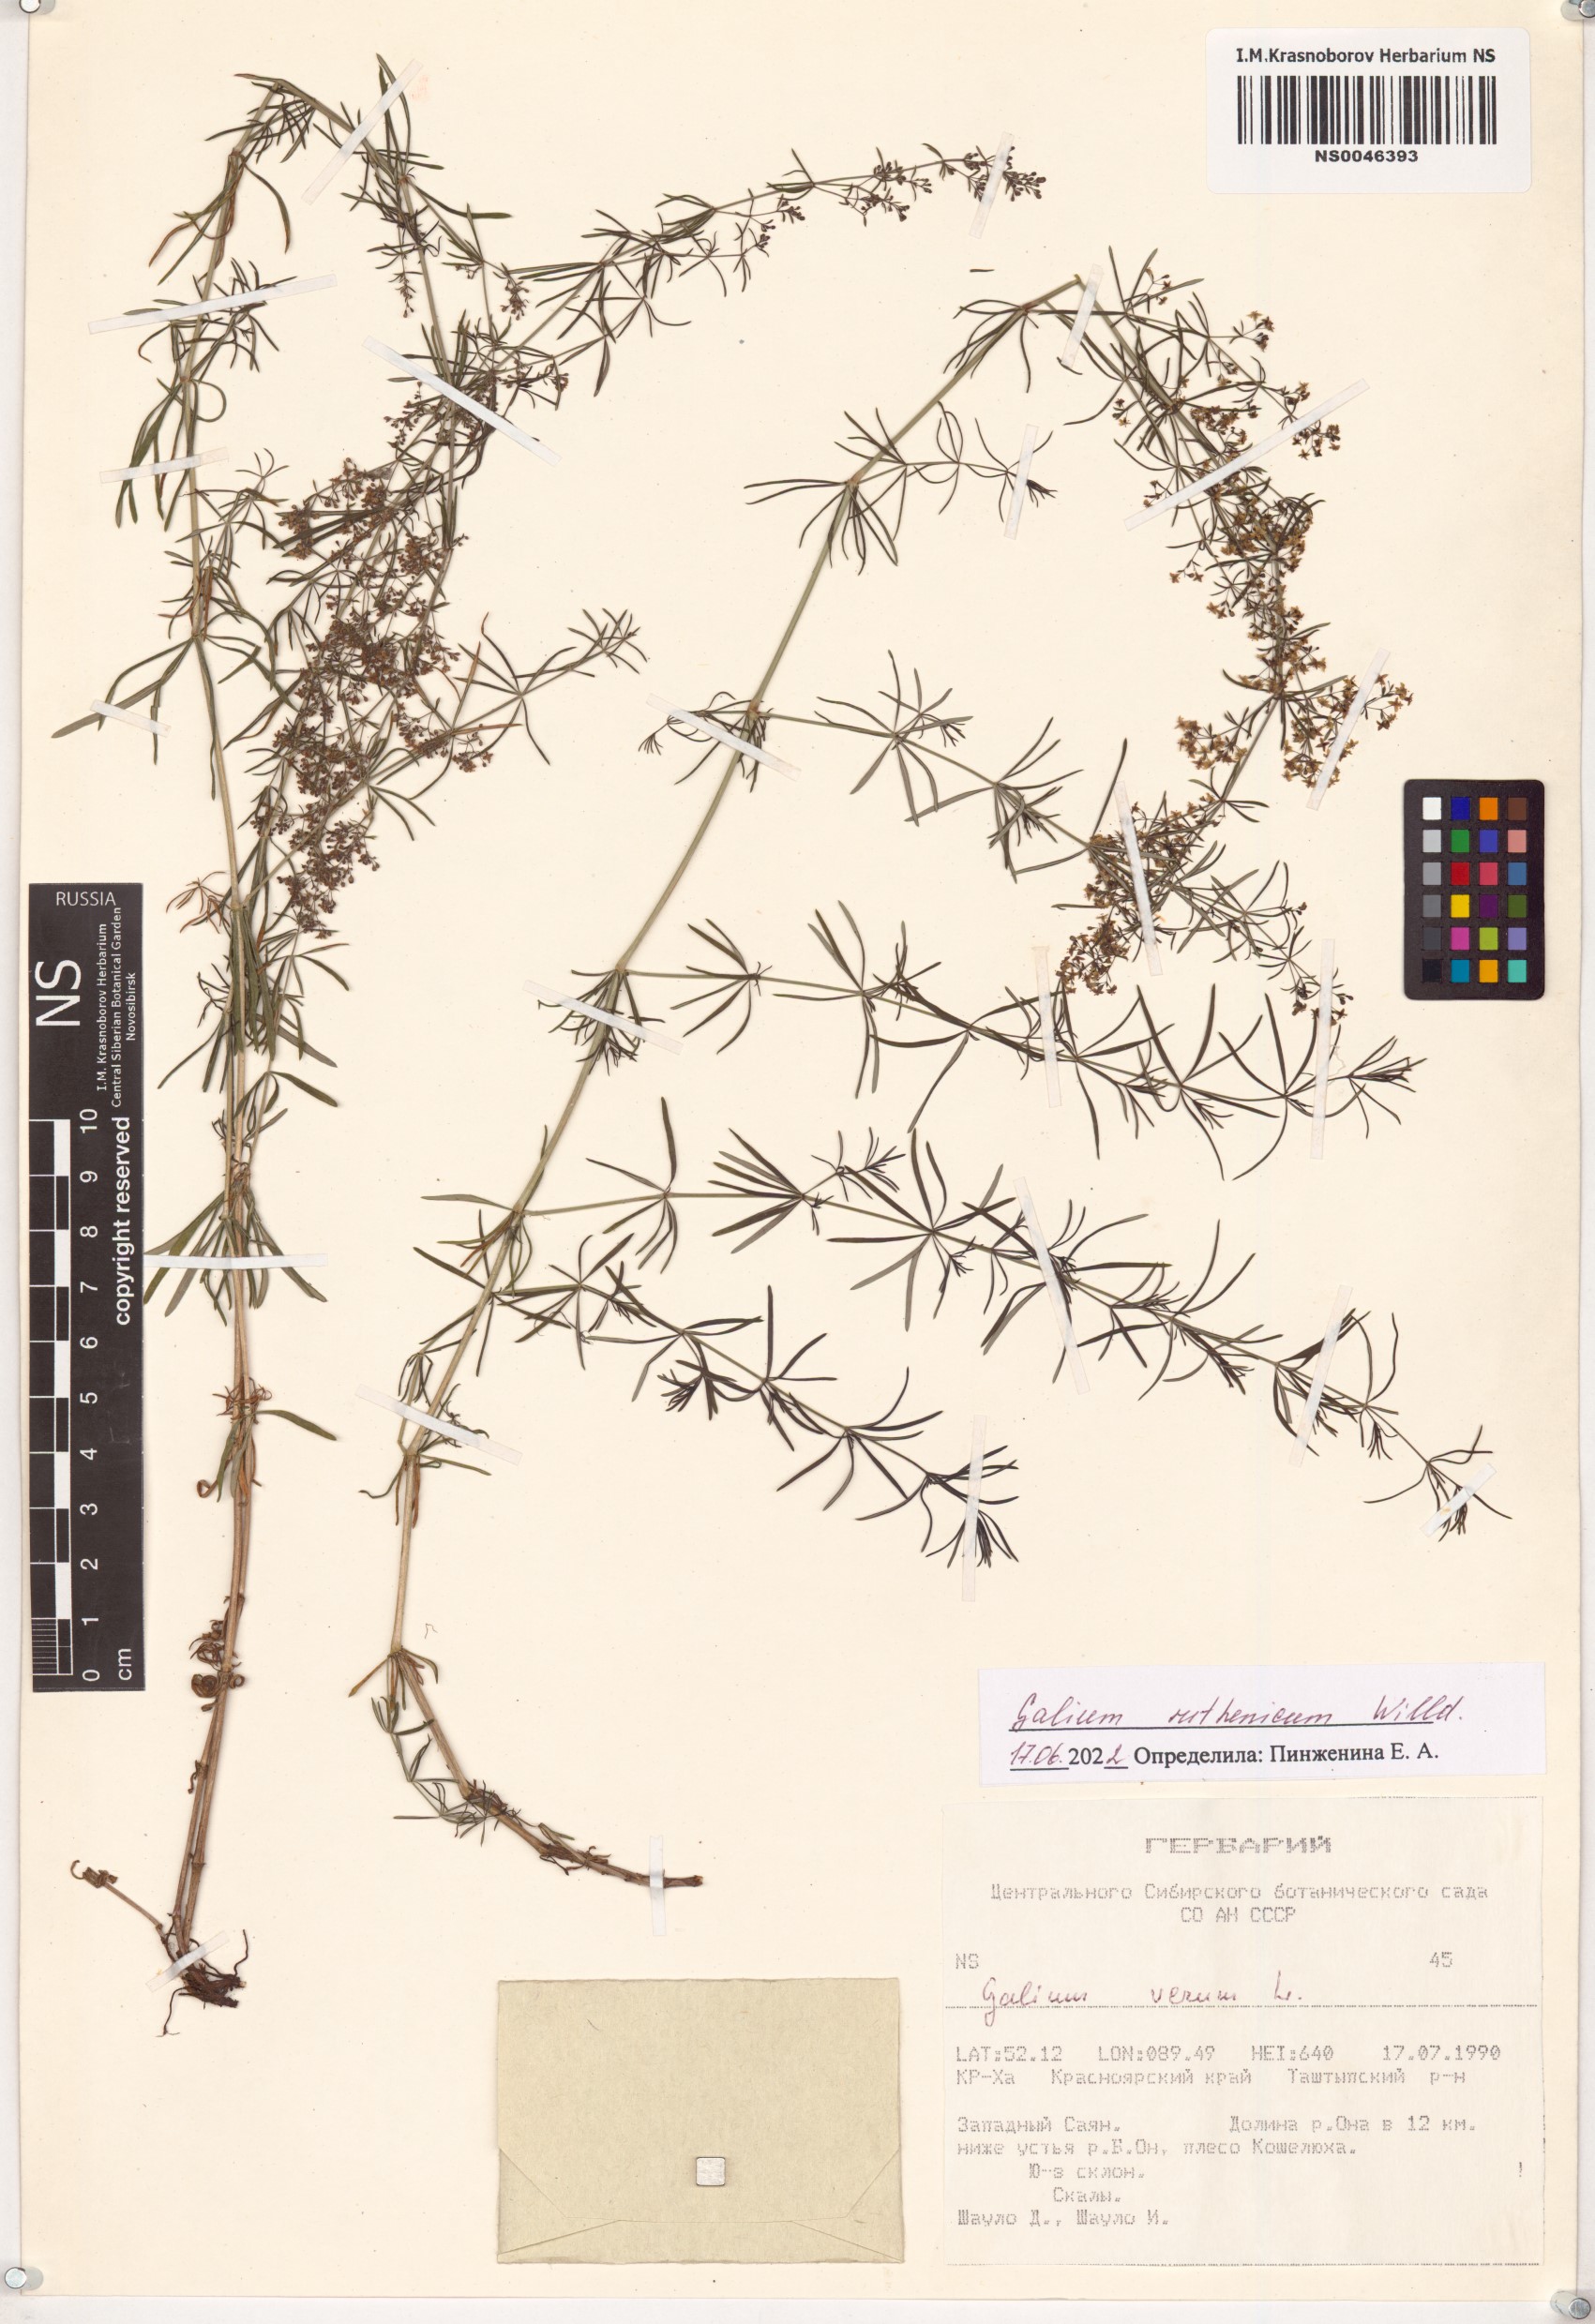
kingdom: Plantae
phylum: Tracheophyta
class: Magnoliopsida
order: Gentianales
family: Rubiaceae
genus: Galium
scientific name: Galium verum
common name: Lady's bedstraw
